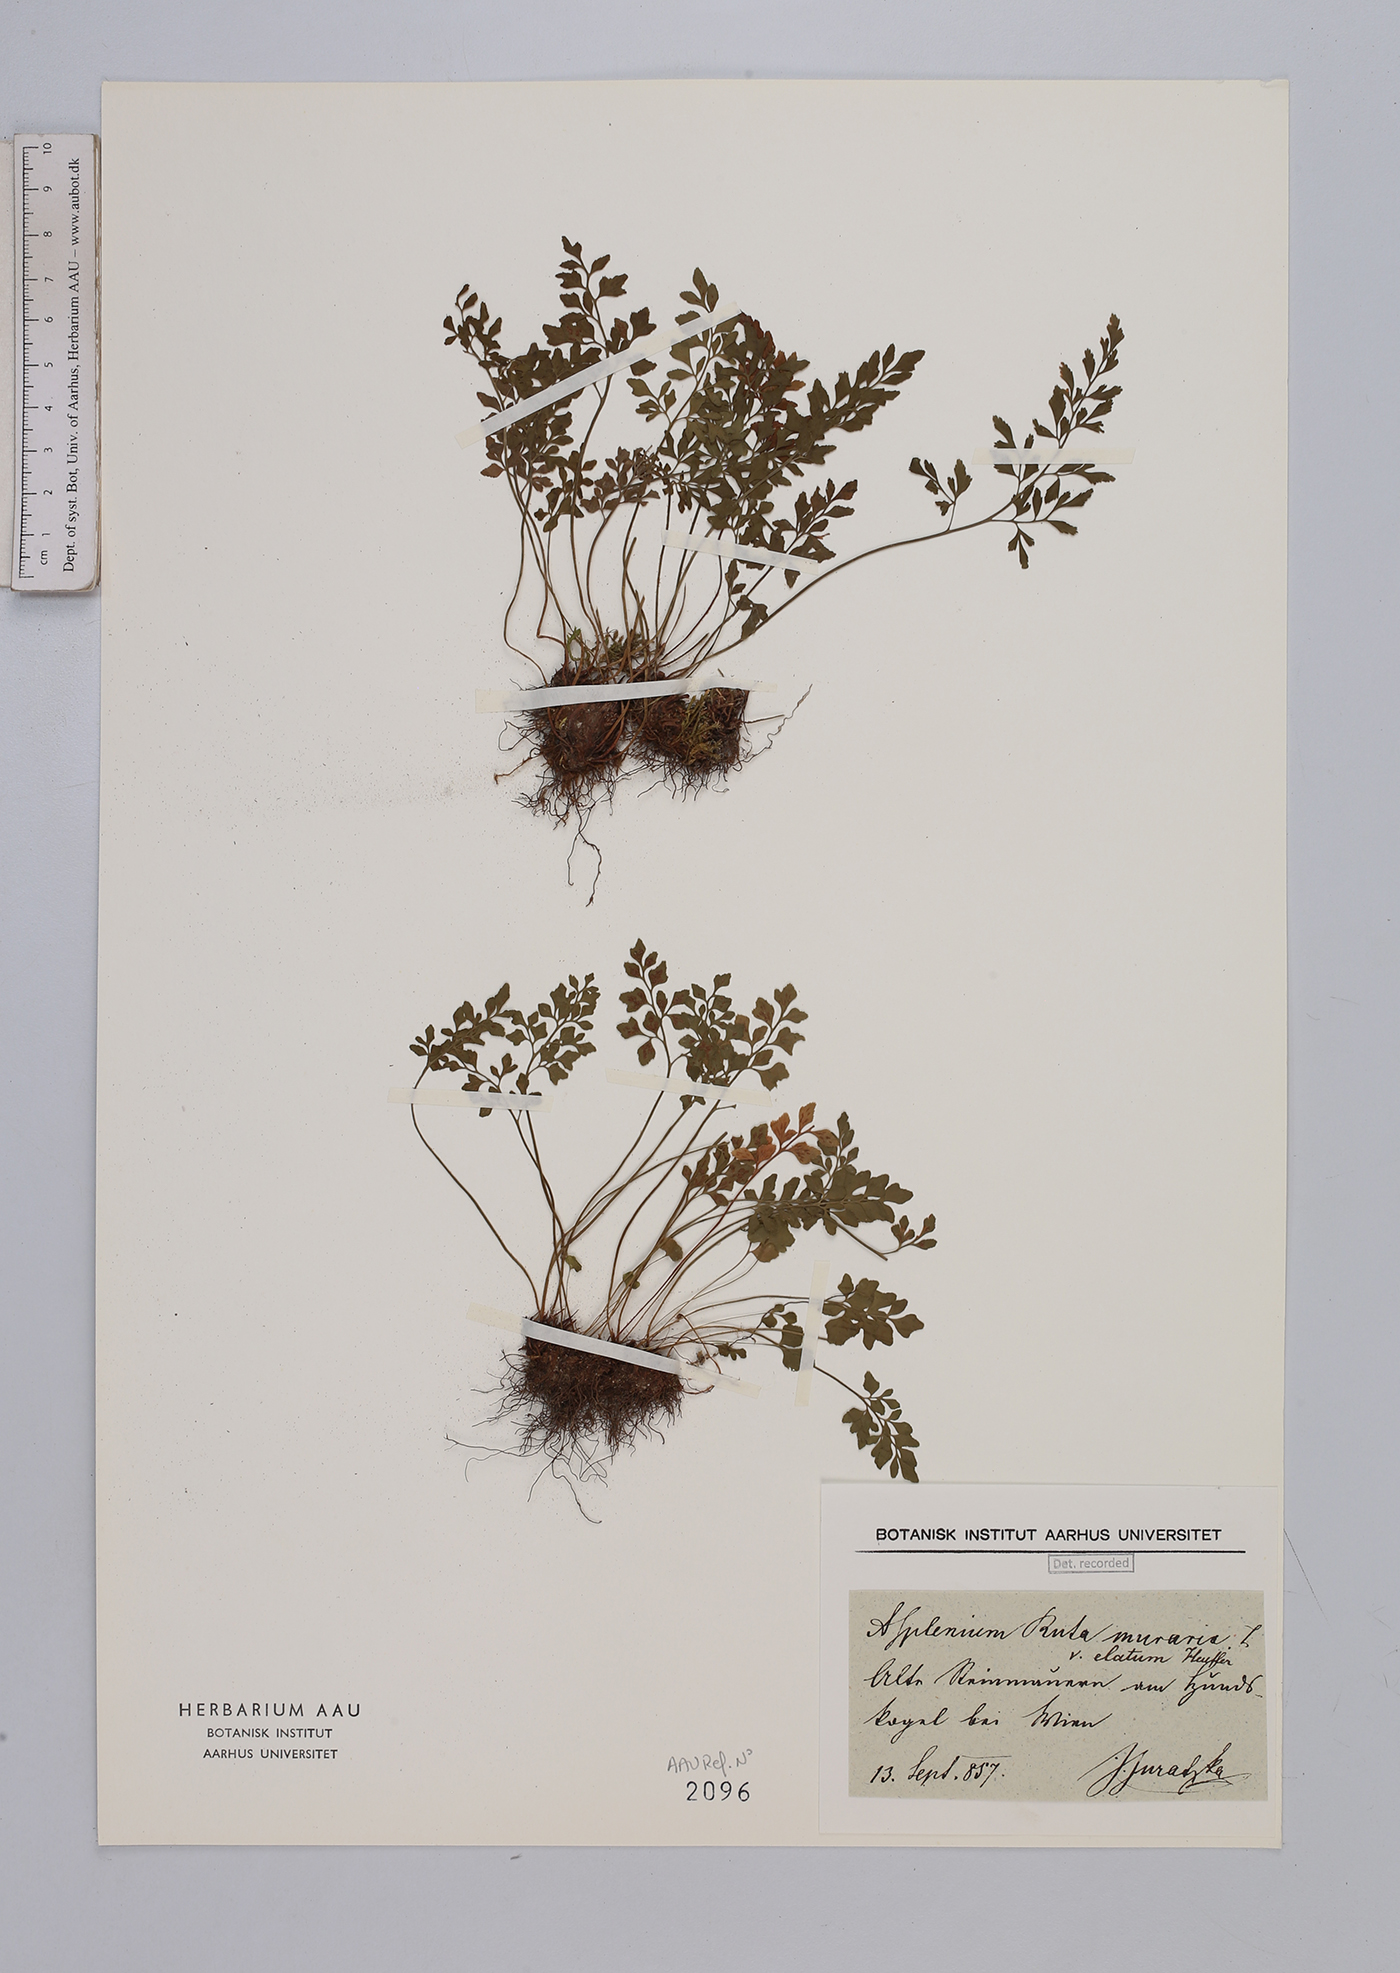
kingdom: Plantae
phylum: Tracheophyta
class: Polypodiopsida
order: Polypodiales
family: Aspleniaceae
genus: Asplenium
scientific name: Asplenium ruta-muraria
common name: Wall-rue
